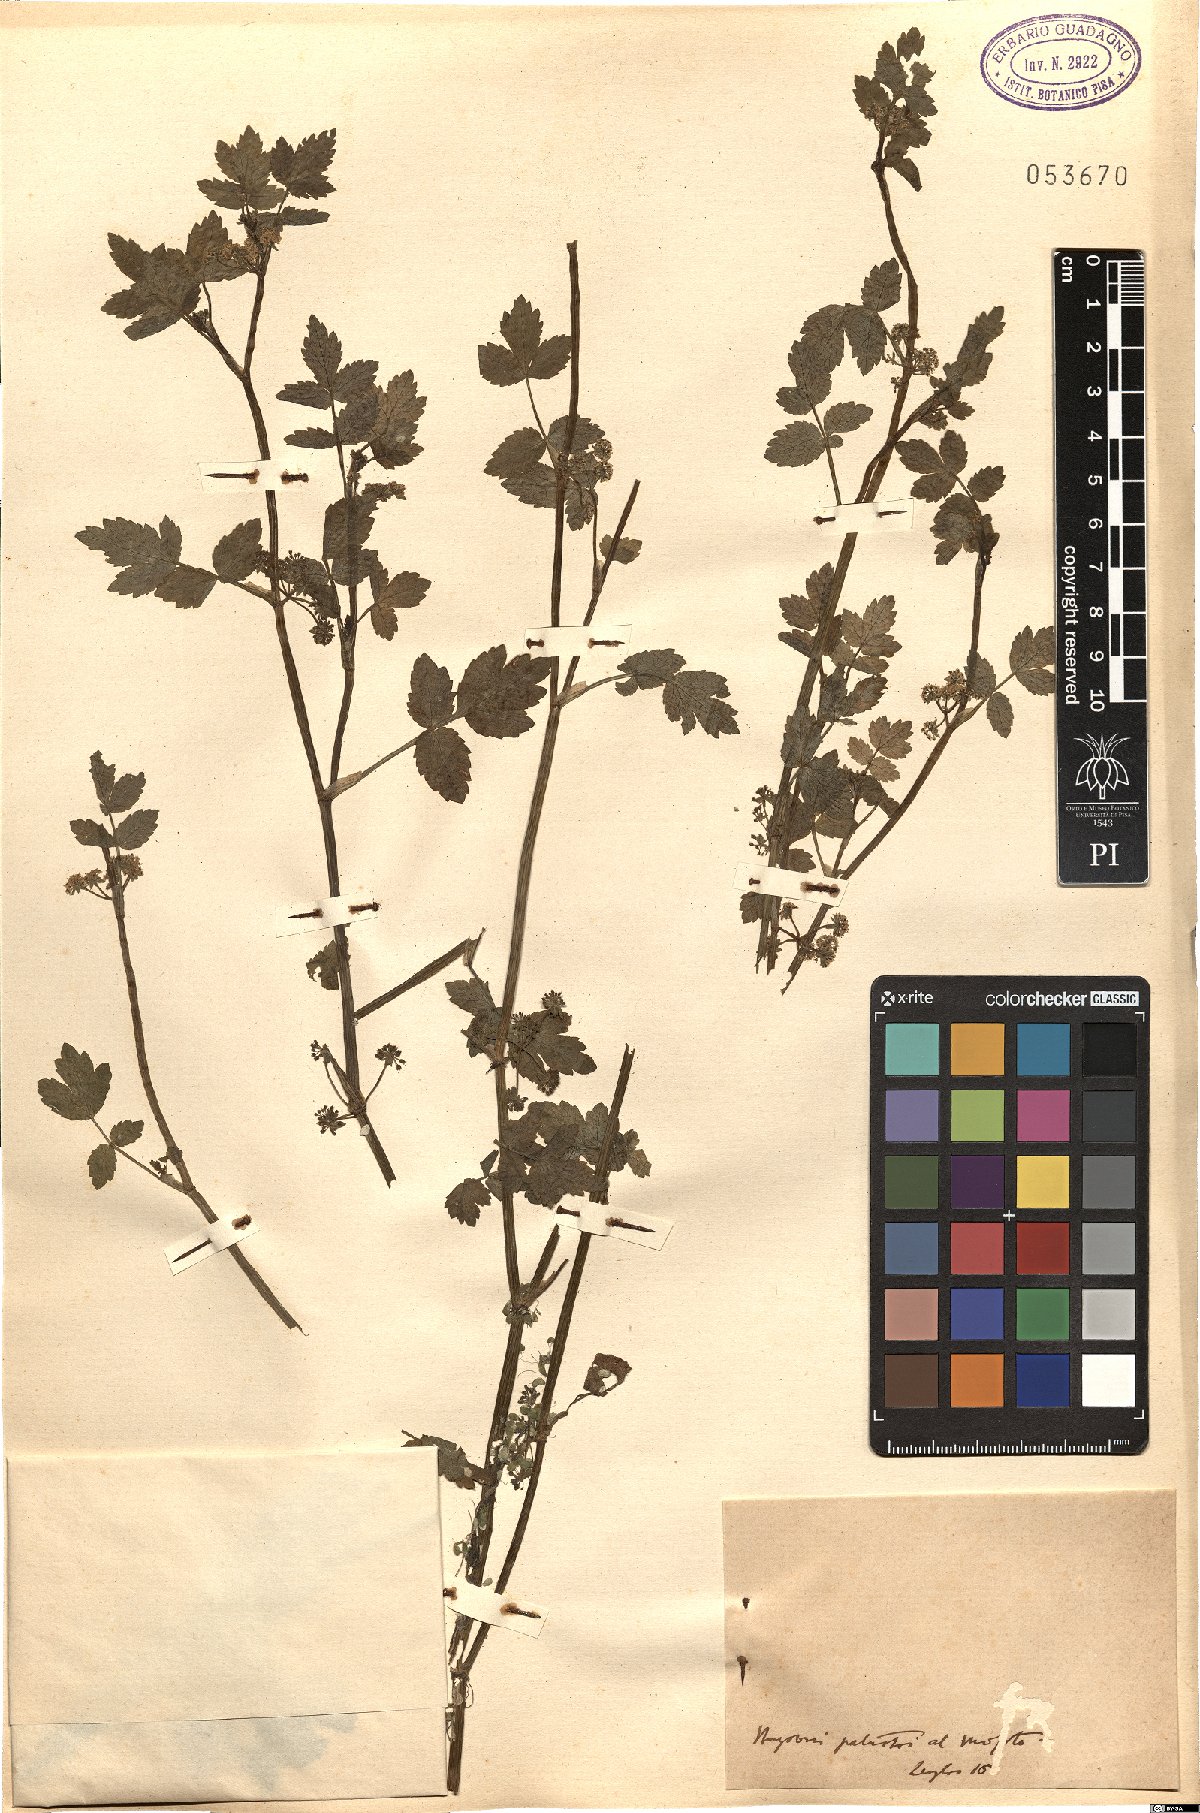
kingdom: Plantae
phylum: Tracheophyta
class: Magnoliopsida
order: Apiales
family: Apiaceae
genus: Apium
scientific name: Apium
